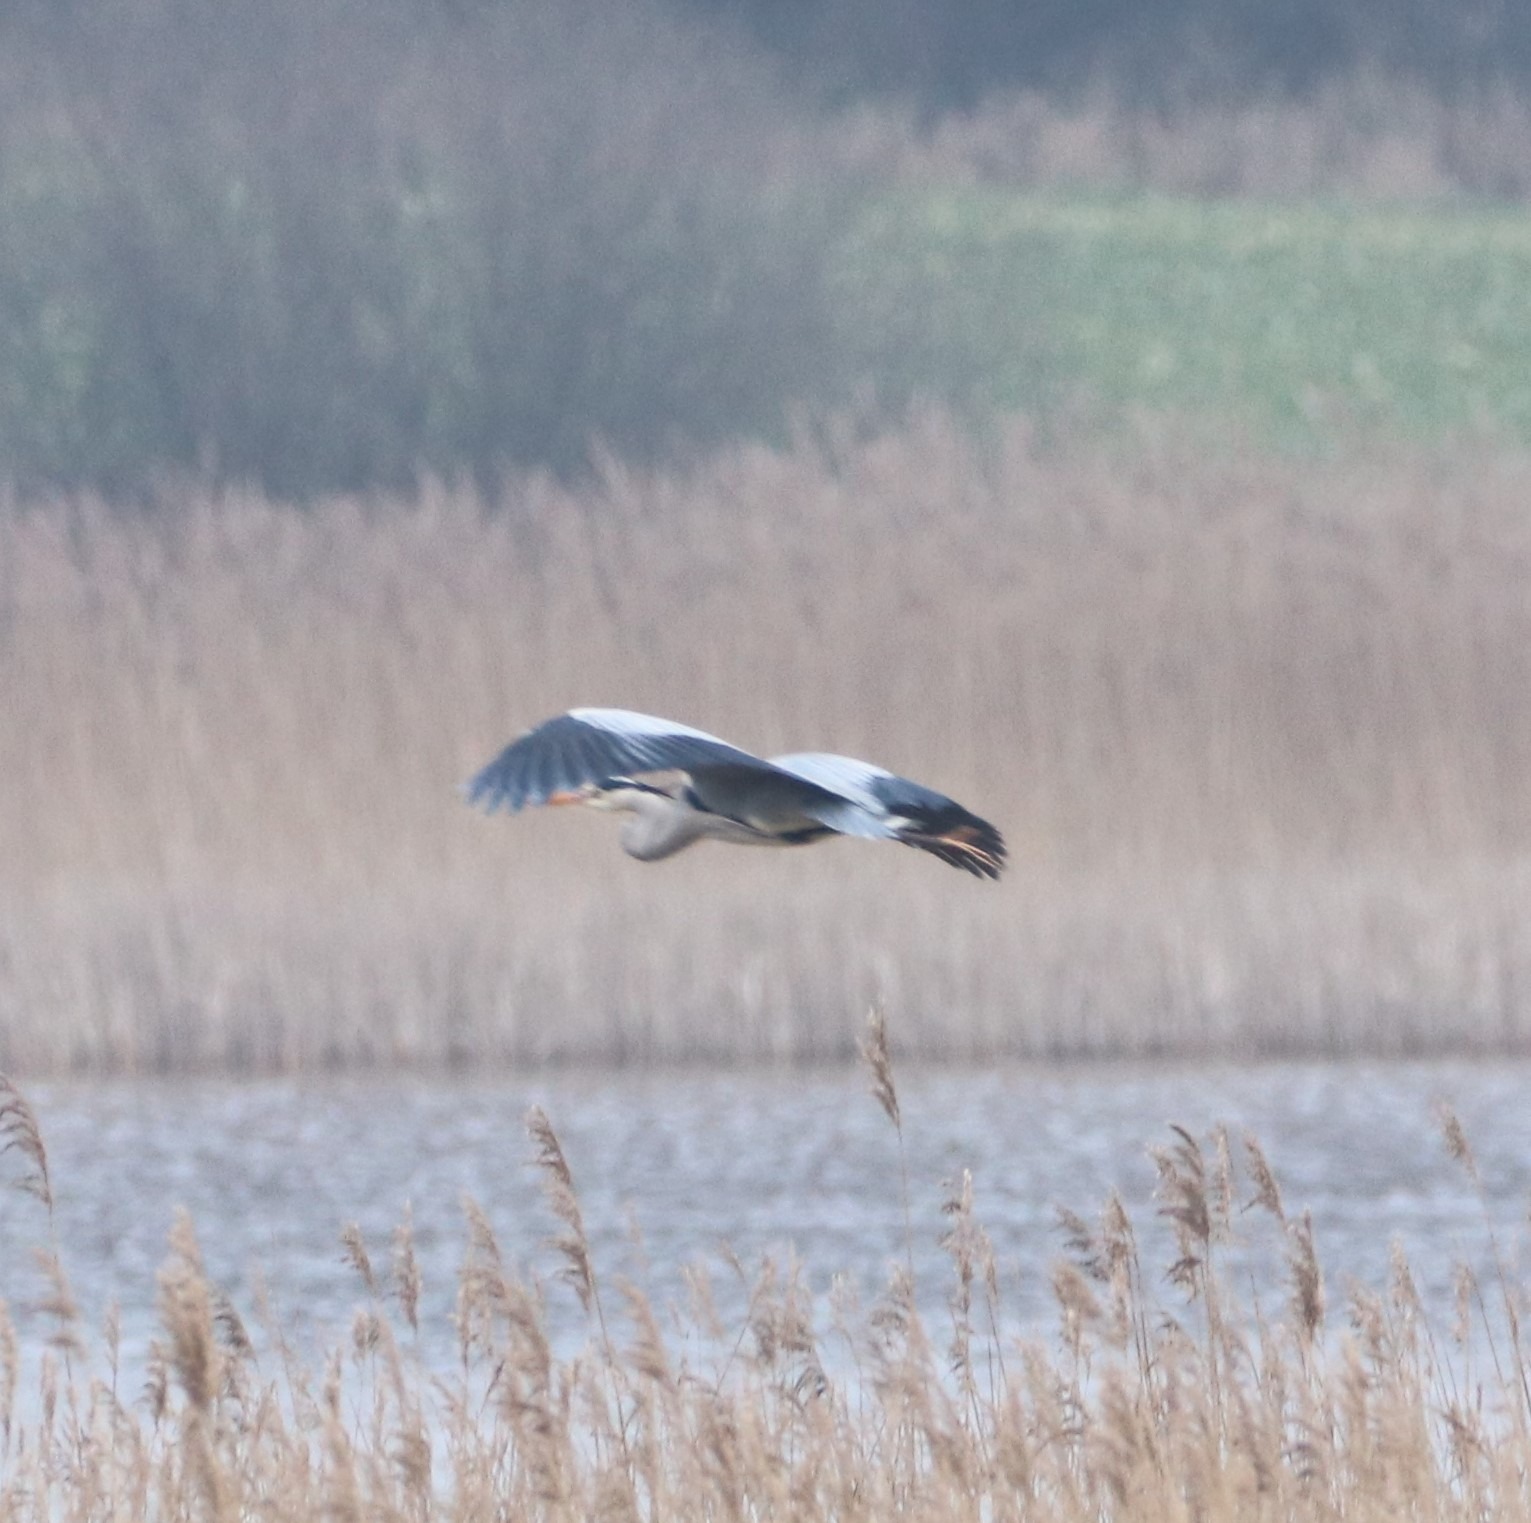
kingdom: Animalia
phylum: Chordata
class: Aves
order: Pelecaniformes
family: Ardeidae
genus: Ardea
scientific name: Ardea cinerea
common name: Fiskehejre
